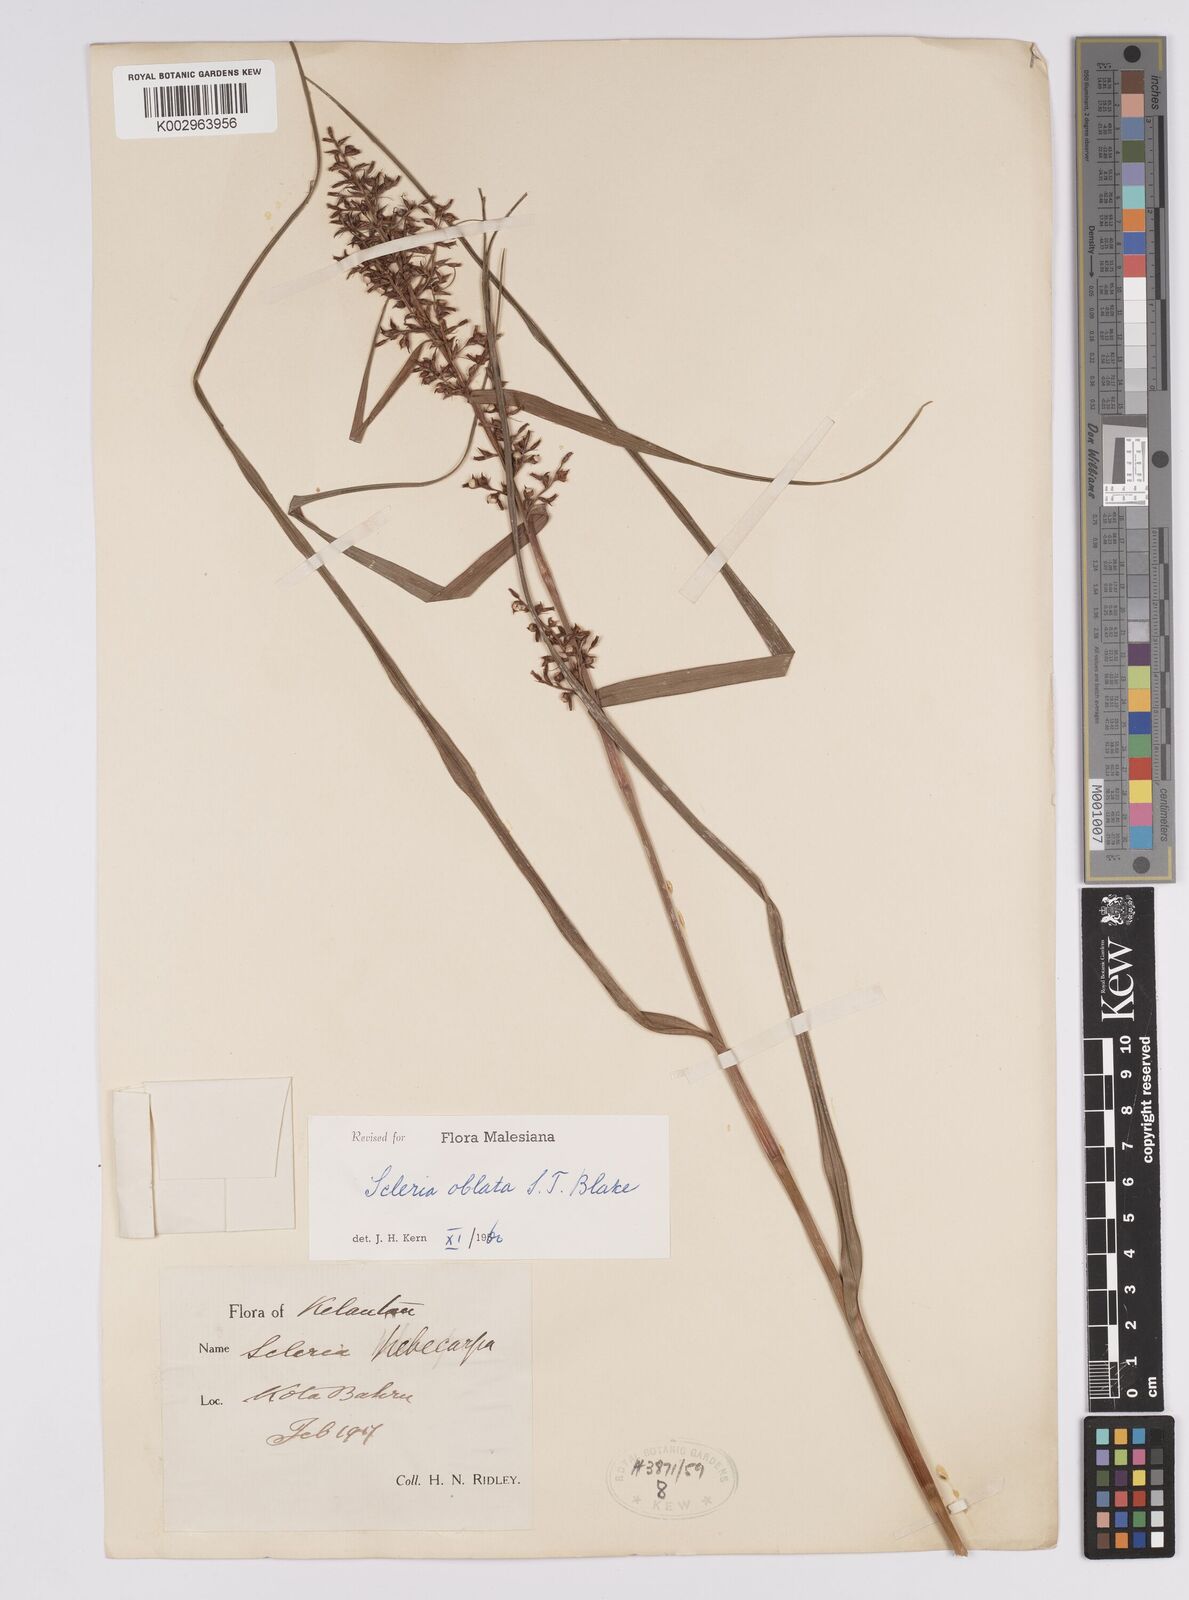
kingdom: Plantae
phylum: Tracheophyta
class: Liliopsida
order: Poales
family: Cyperaceae
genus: Scleria
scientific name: Scleria oblata
